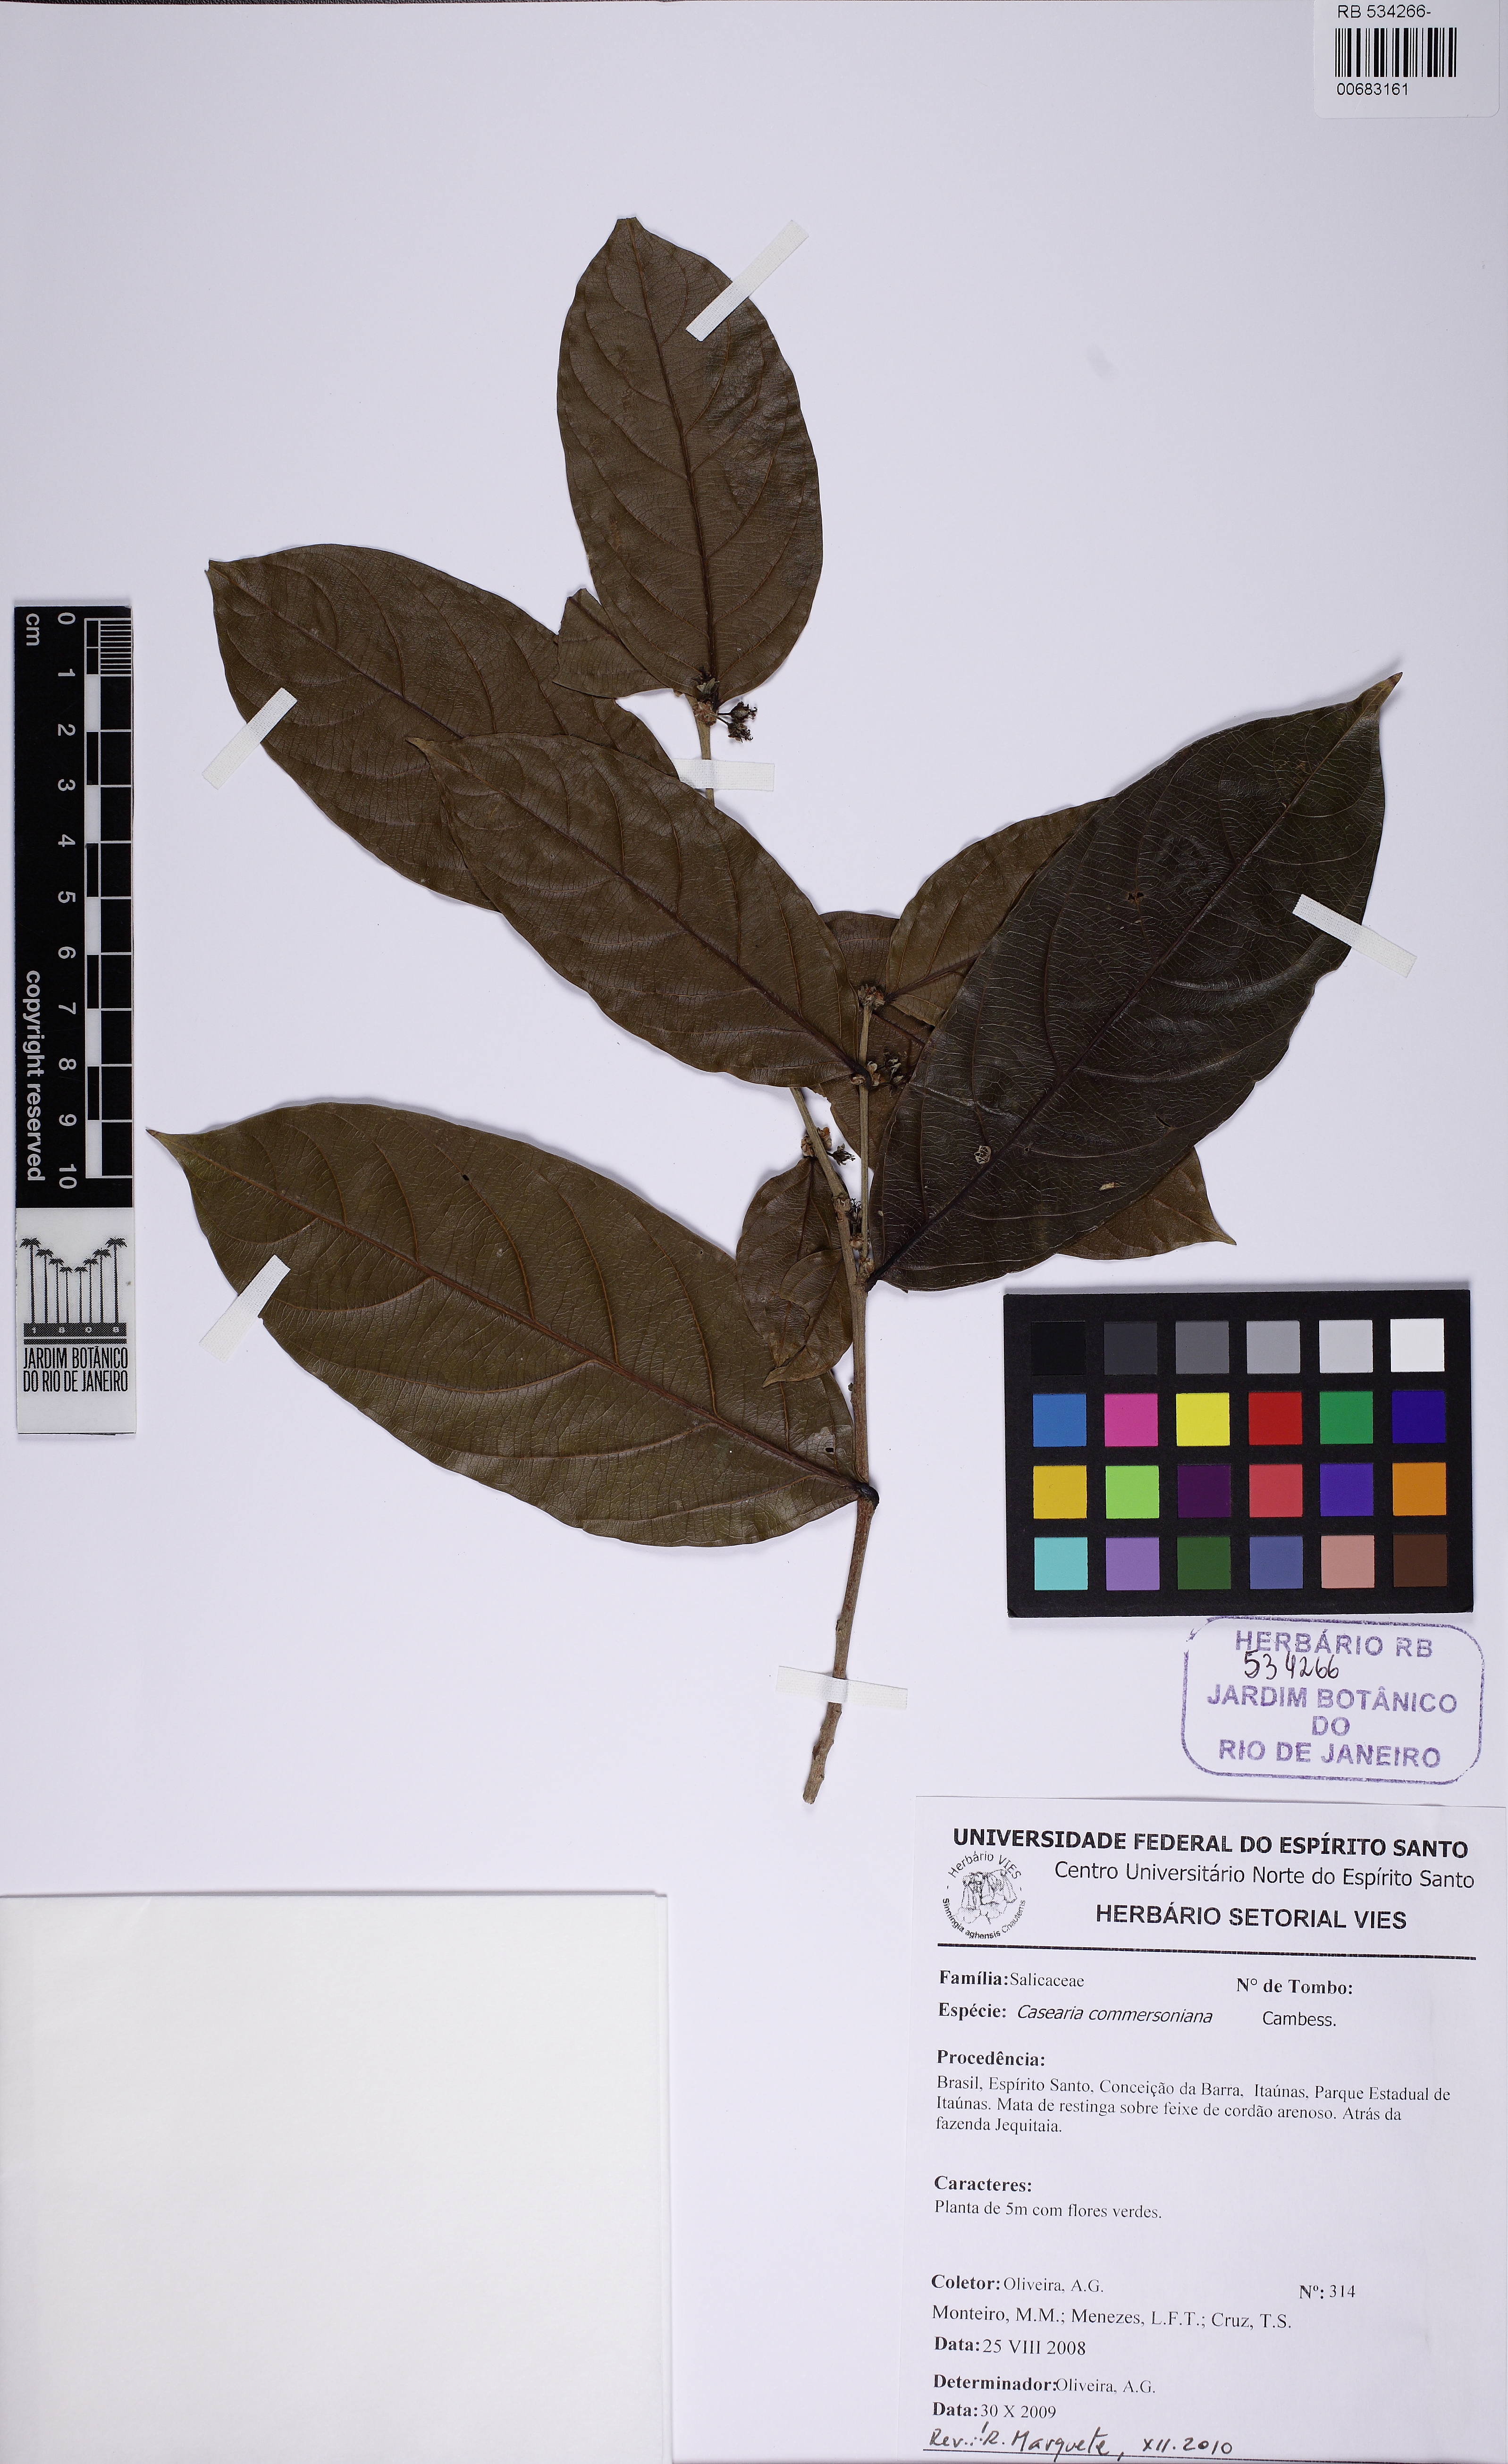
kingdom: Plantae
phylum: Tracheophyta
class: Magnoliopsida
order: Malpighiales
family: Salicaceae
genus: Piparea
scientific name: Piparea dentata
